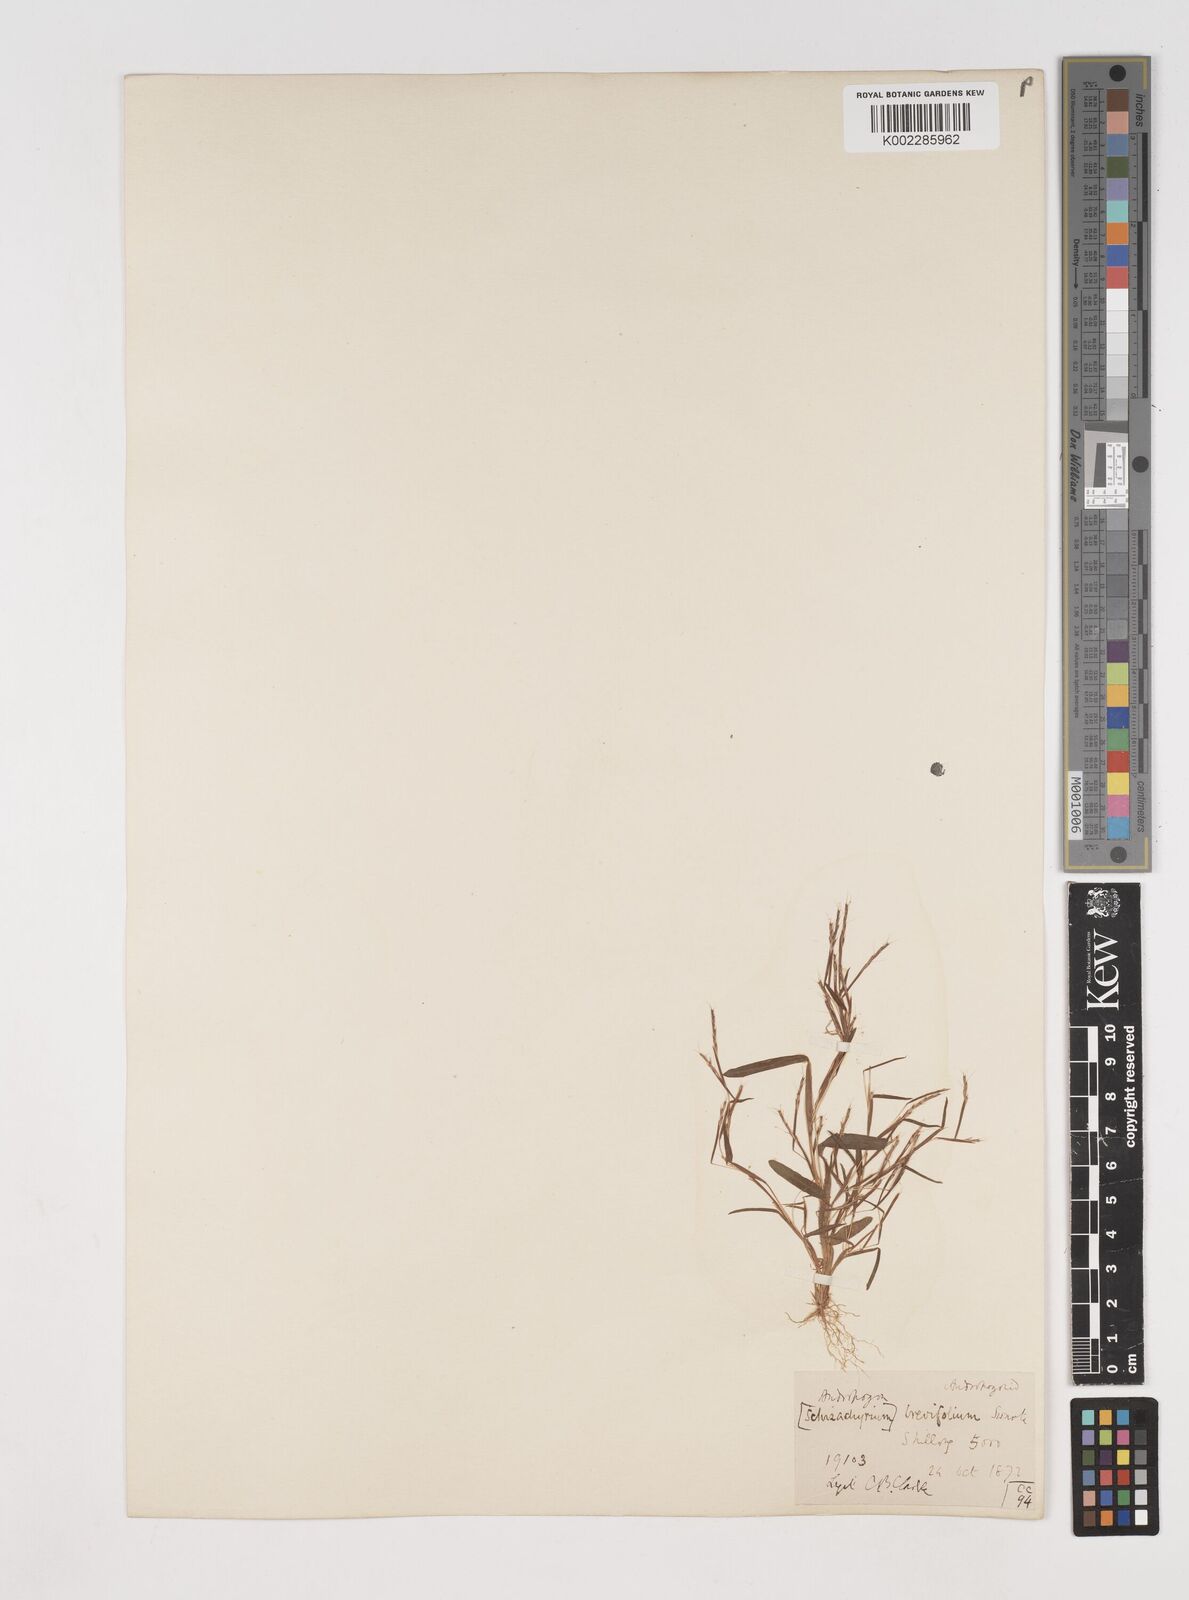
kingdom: Plantae
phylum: Tracheophyta
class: Liliopsida
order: Poales
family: Poaceae
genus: Schizachyrium
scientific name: Schizachyrium brevifolium
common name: Serillo dulce
